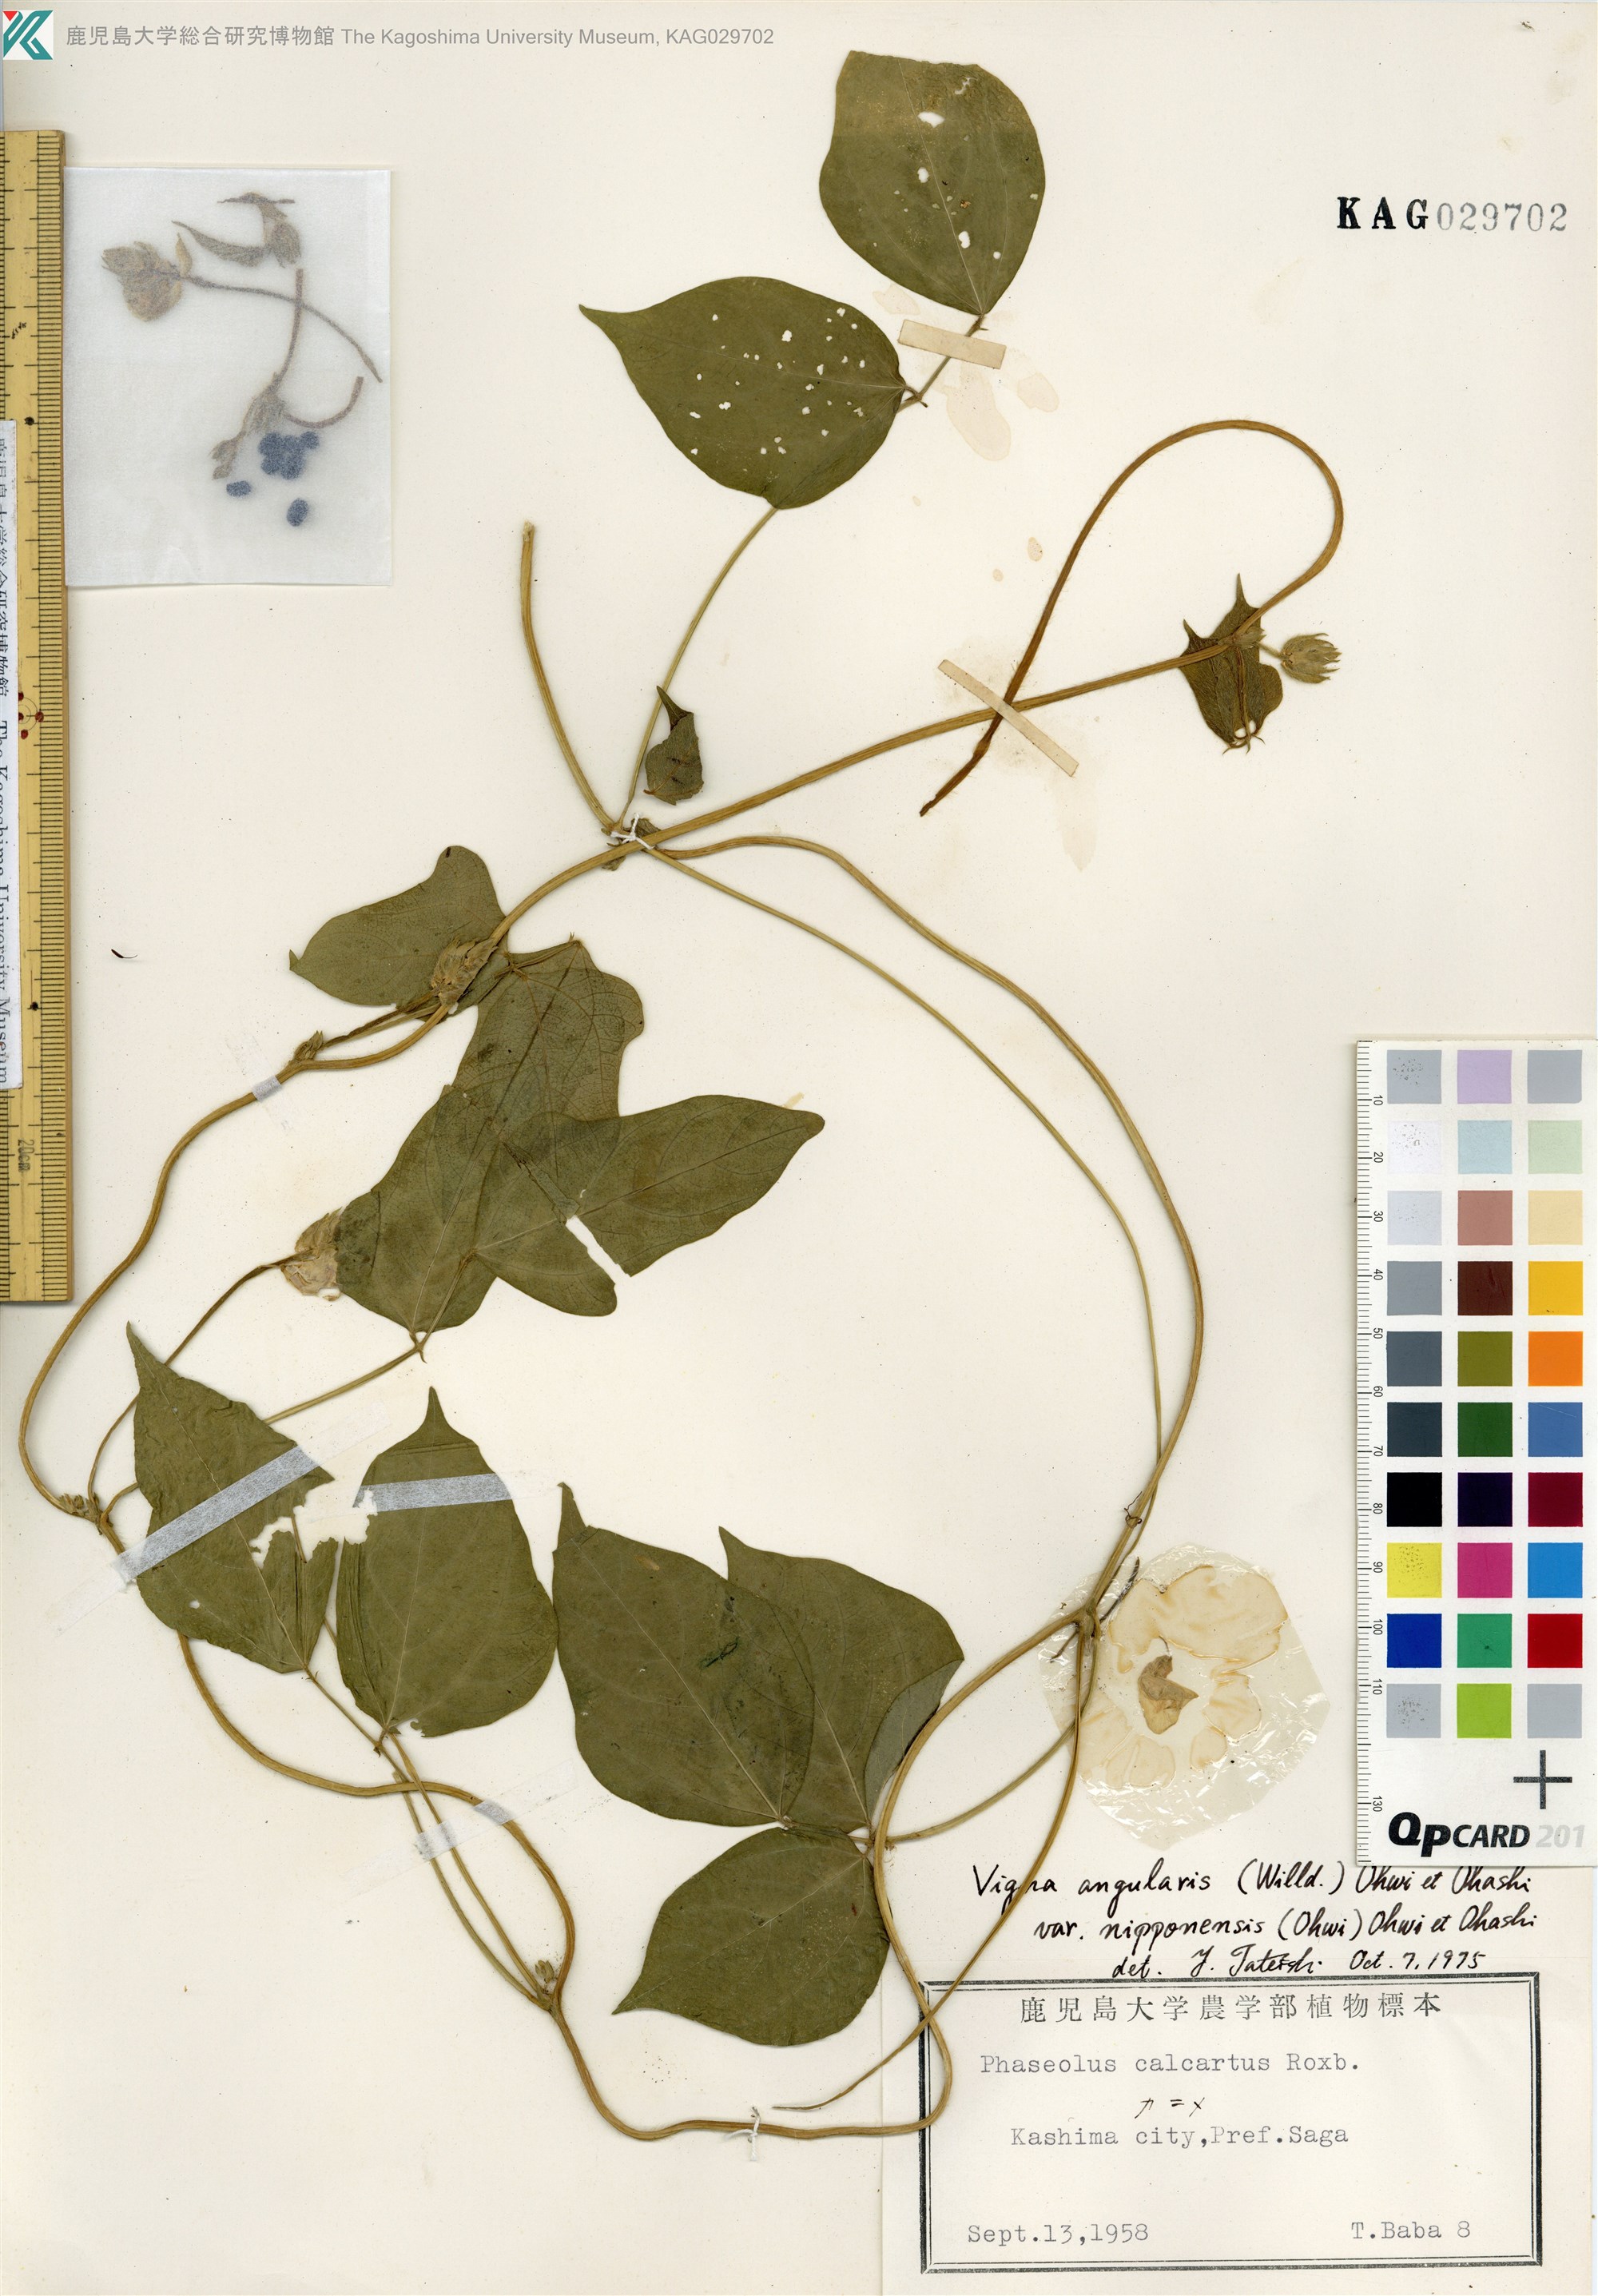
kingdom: Plantae
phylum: Tracheophyta
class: Magnoliopsida
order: Fabales
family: Fabaceae
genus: Vigna
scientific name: Vigna angularis
